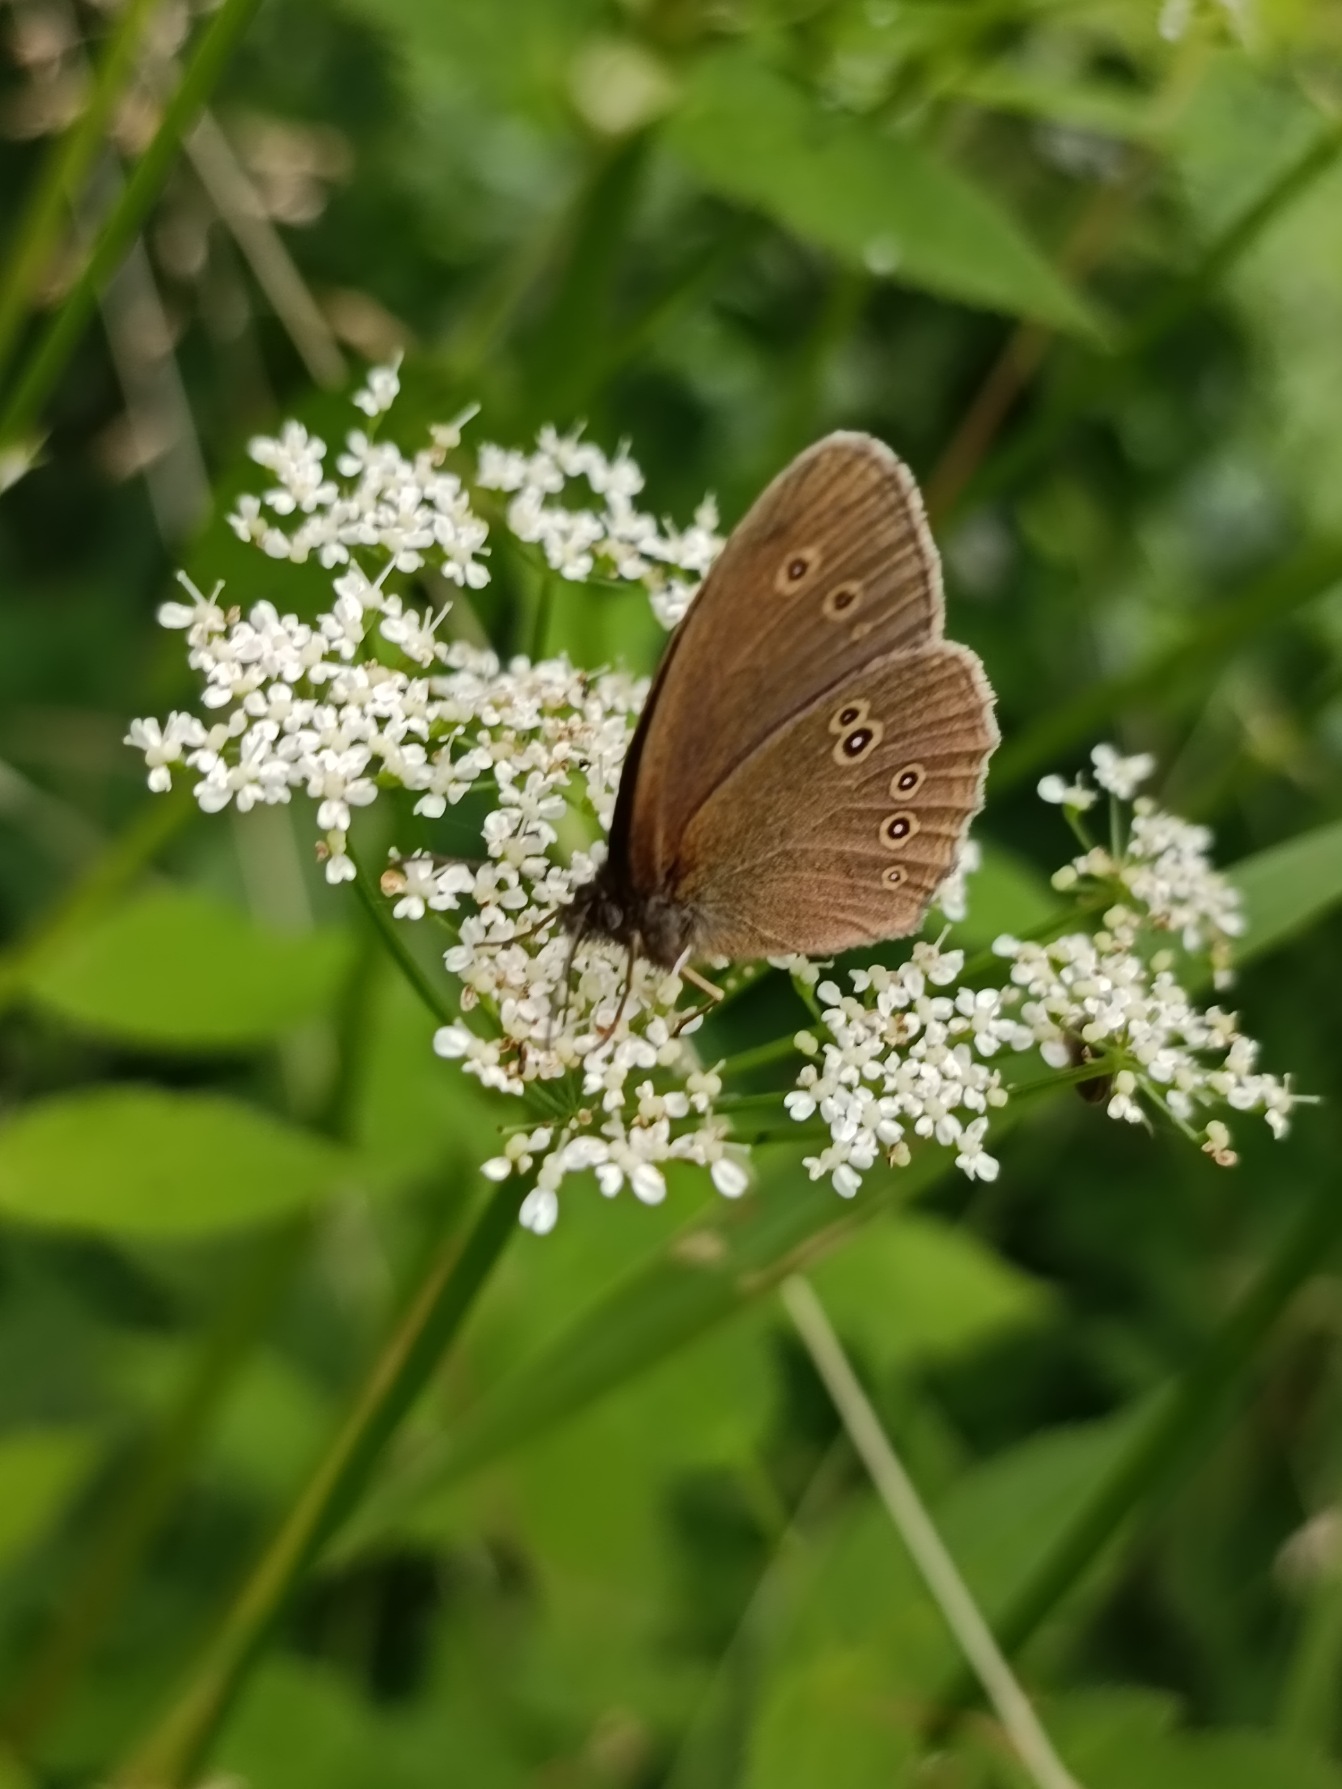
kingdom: Animalia
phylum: Arthropoda
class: Insecta
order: Lepidoptera
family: Nymphalidae
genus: Aphantopus
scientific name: Aphantopus hyperantus
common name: Engrandøje
